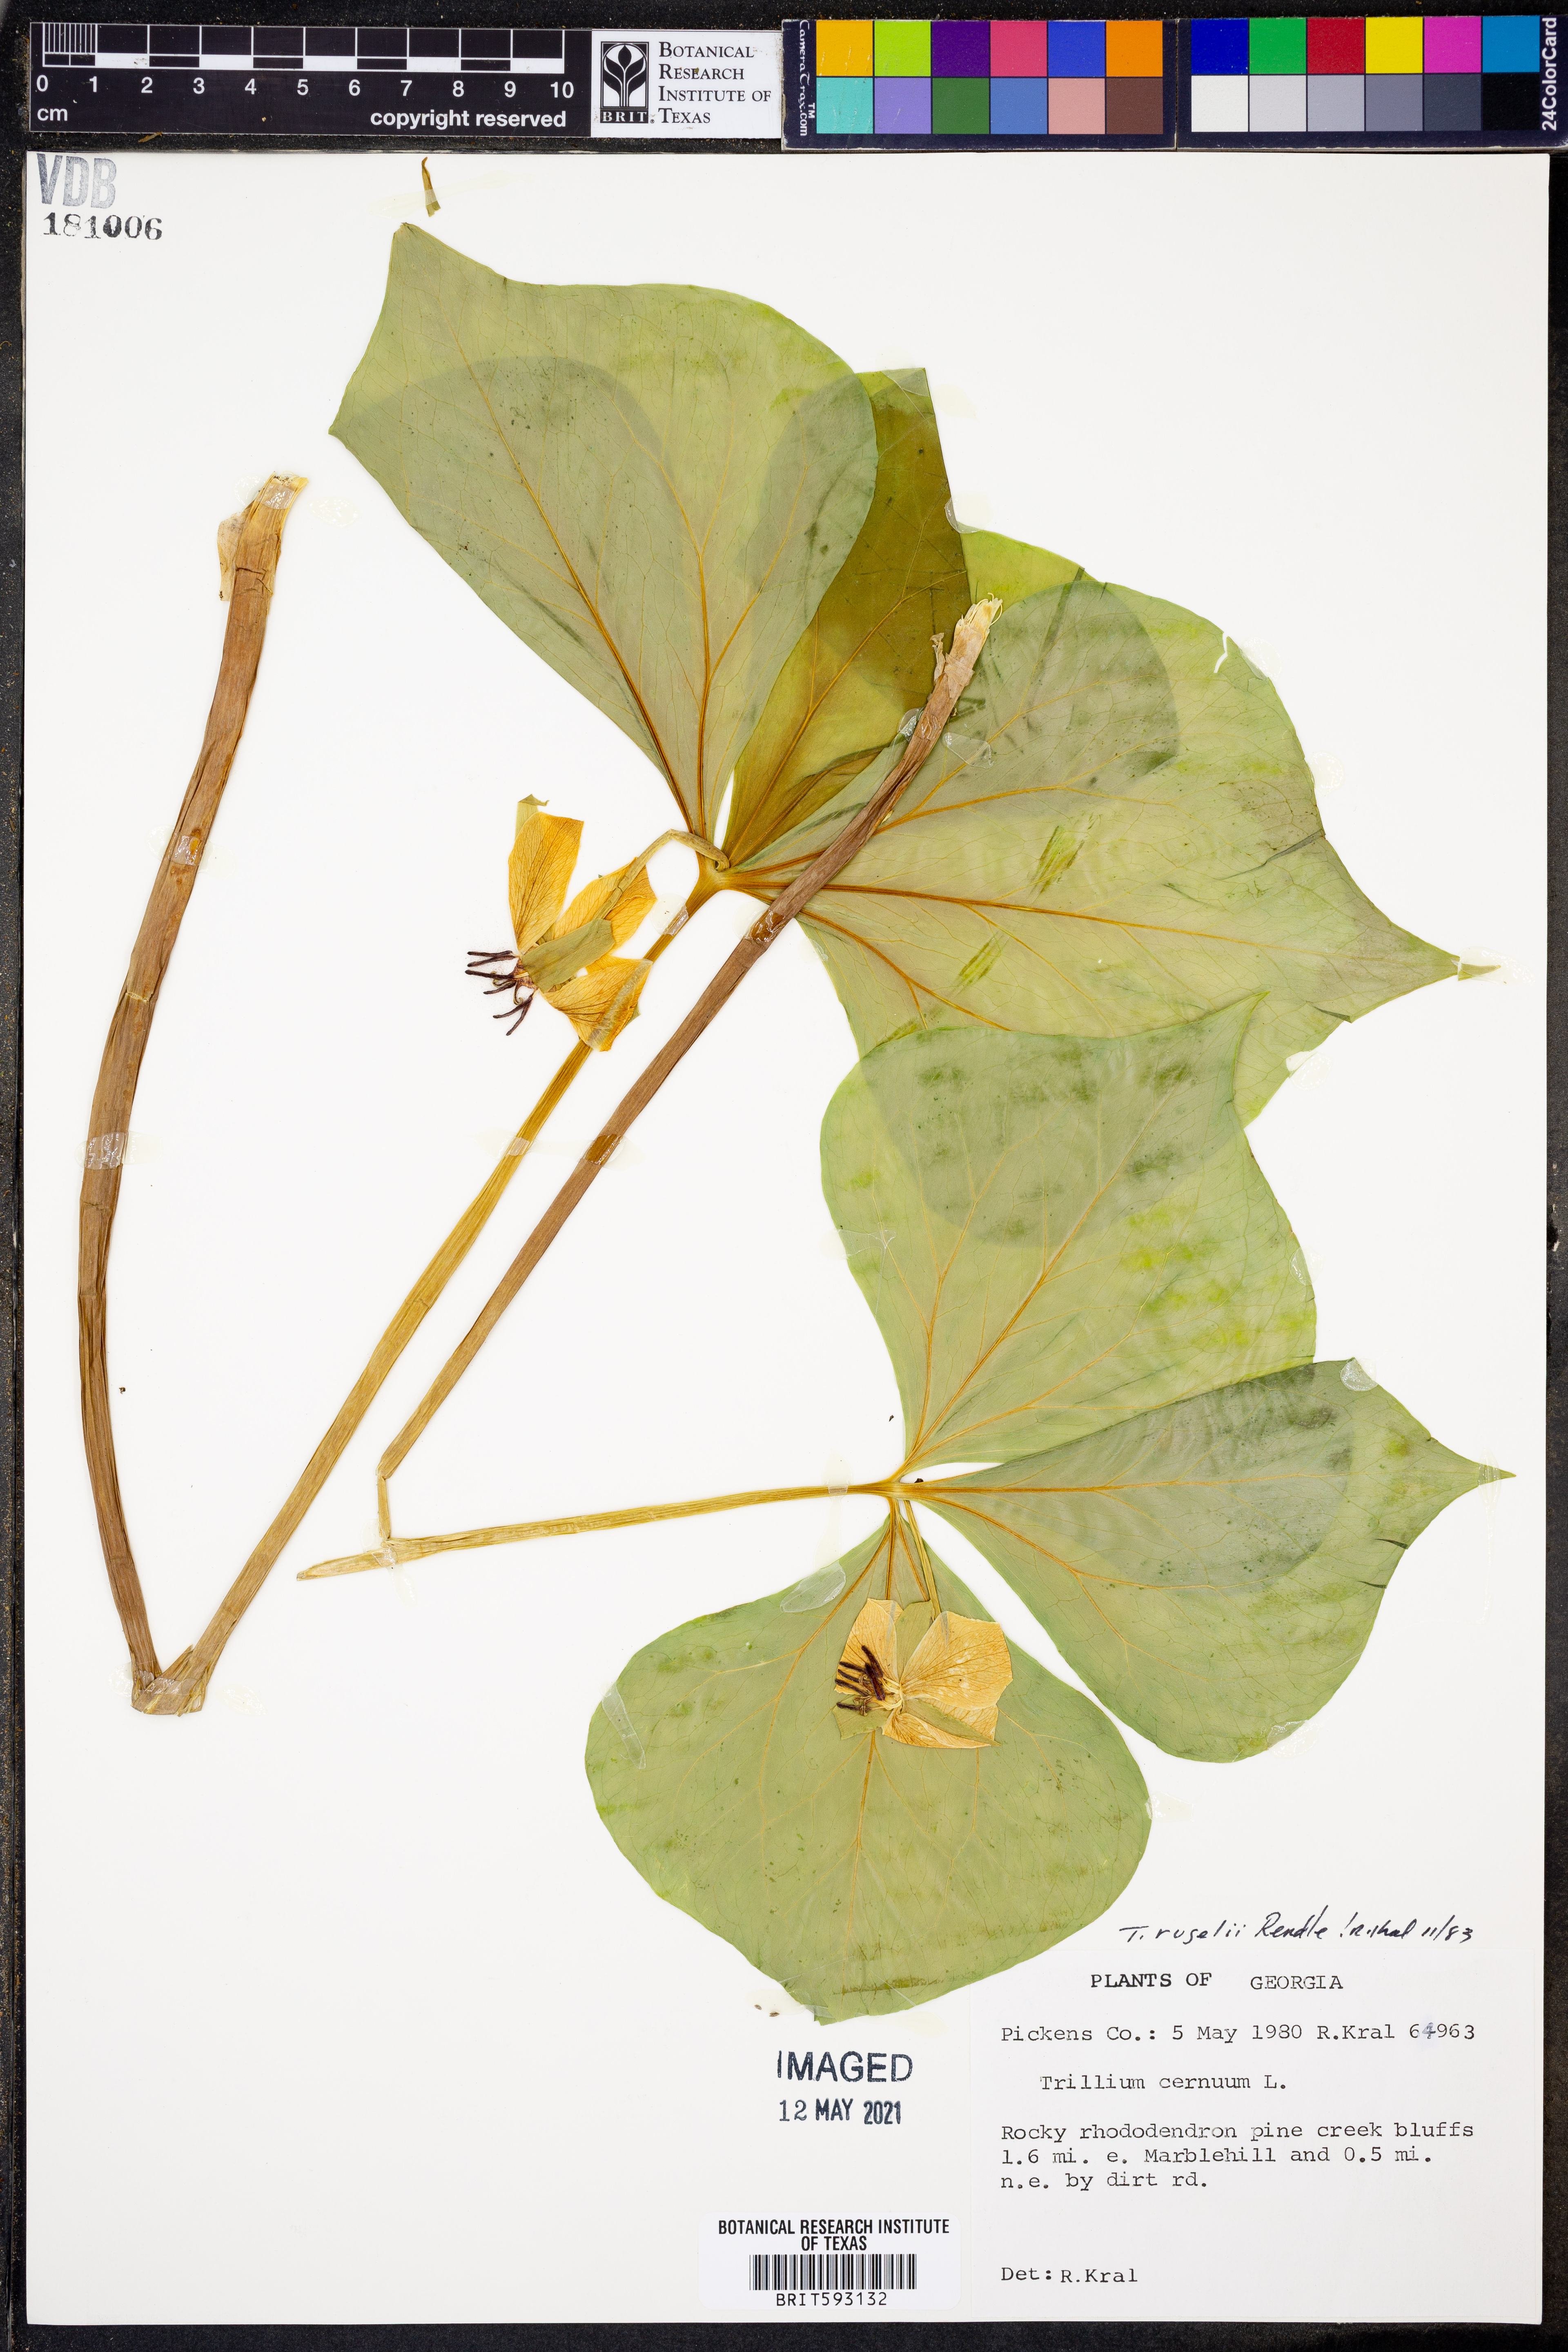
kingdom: Plantae
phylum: Tracheophyta
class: Liliopsida
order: Liliales
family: Melanthiaceae
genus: Trillium
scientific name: Trillium rugelii
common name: Ill-scented trillium
